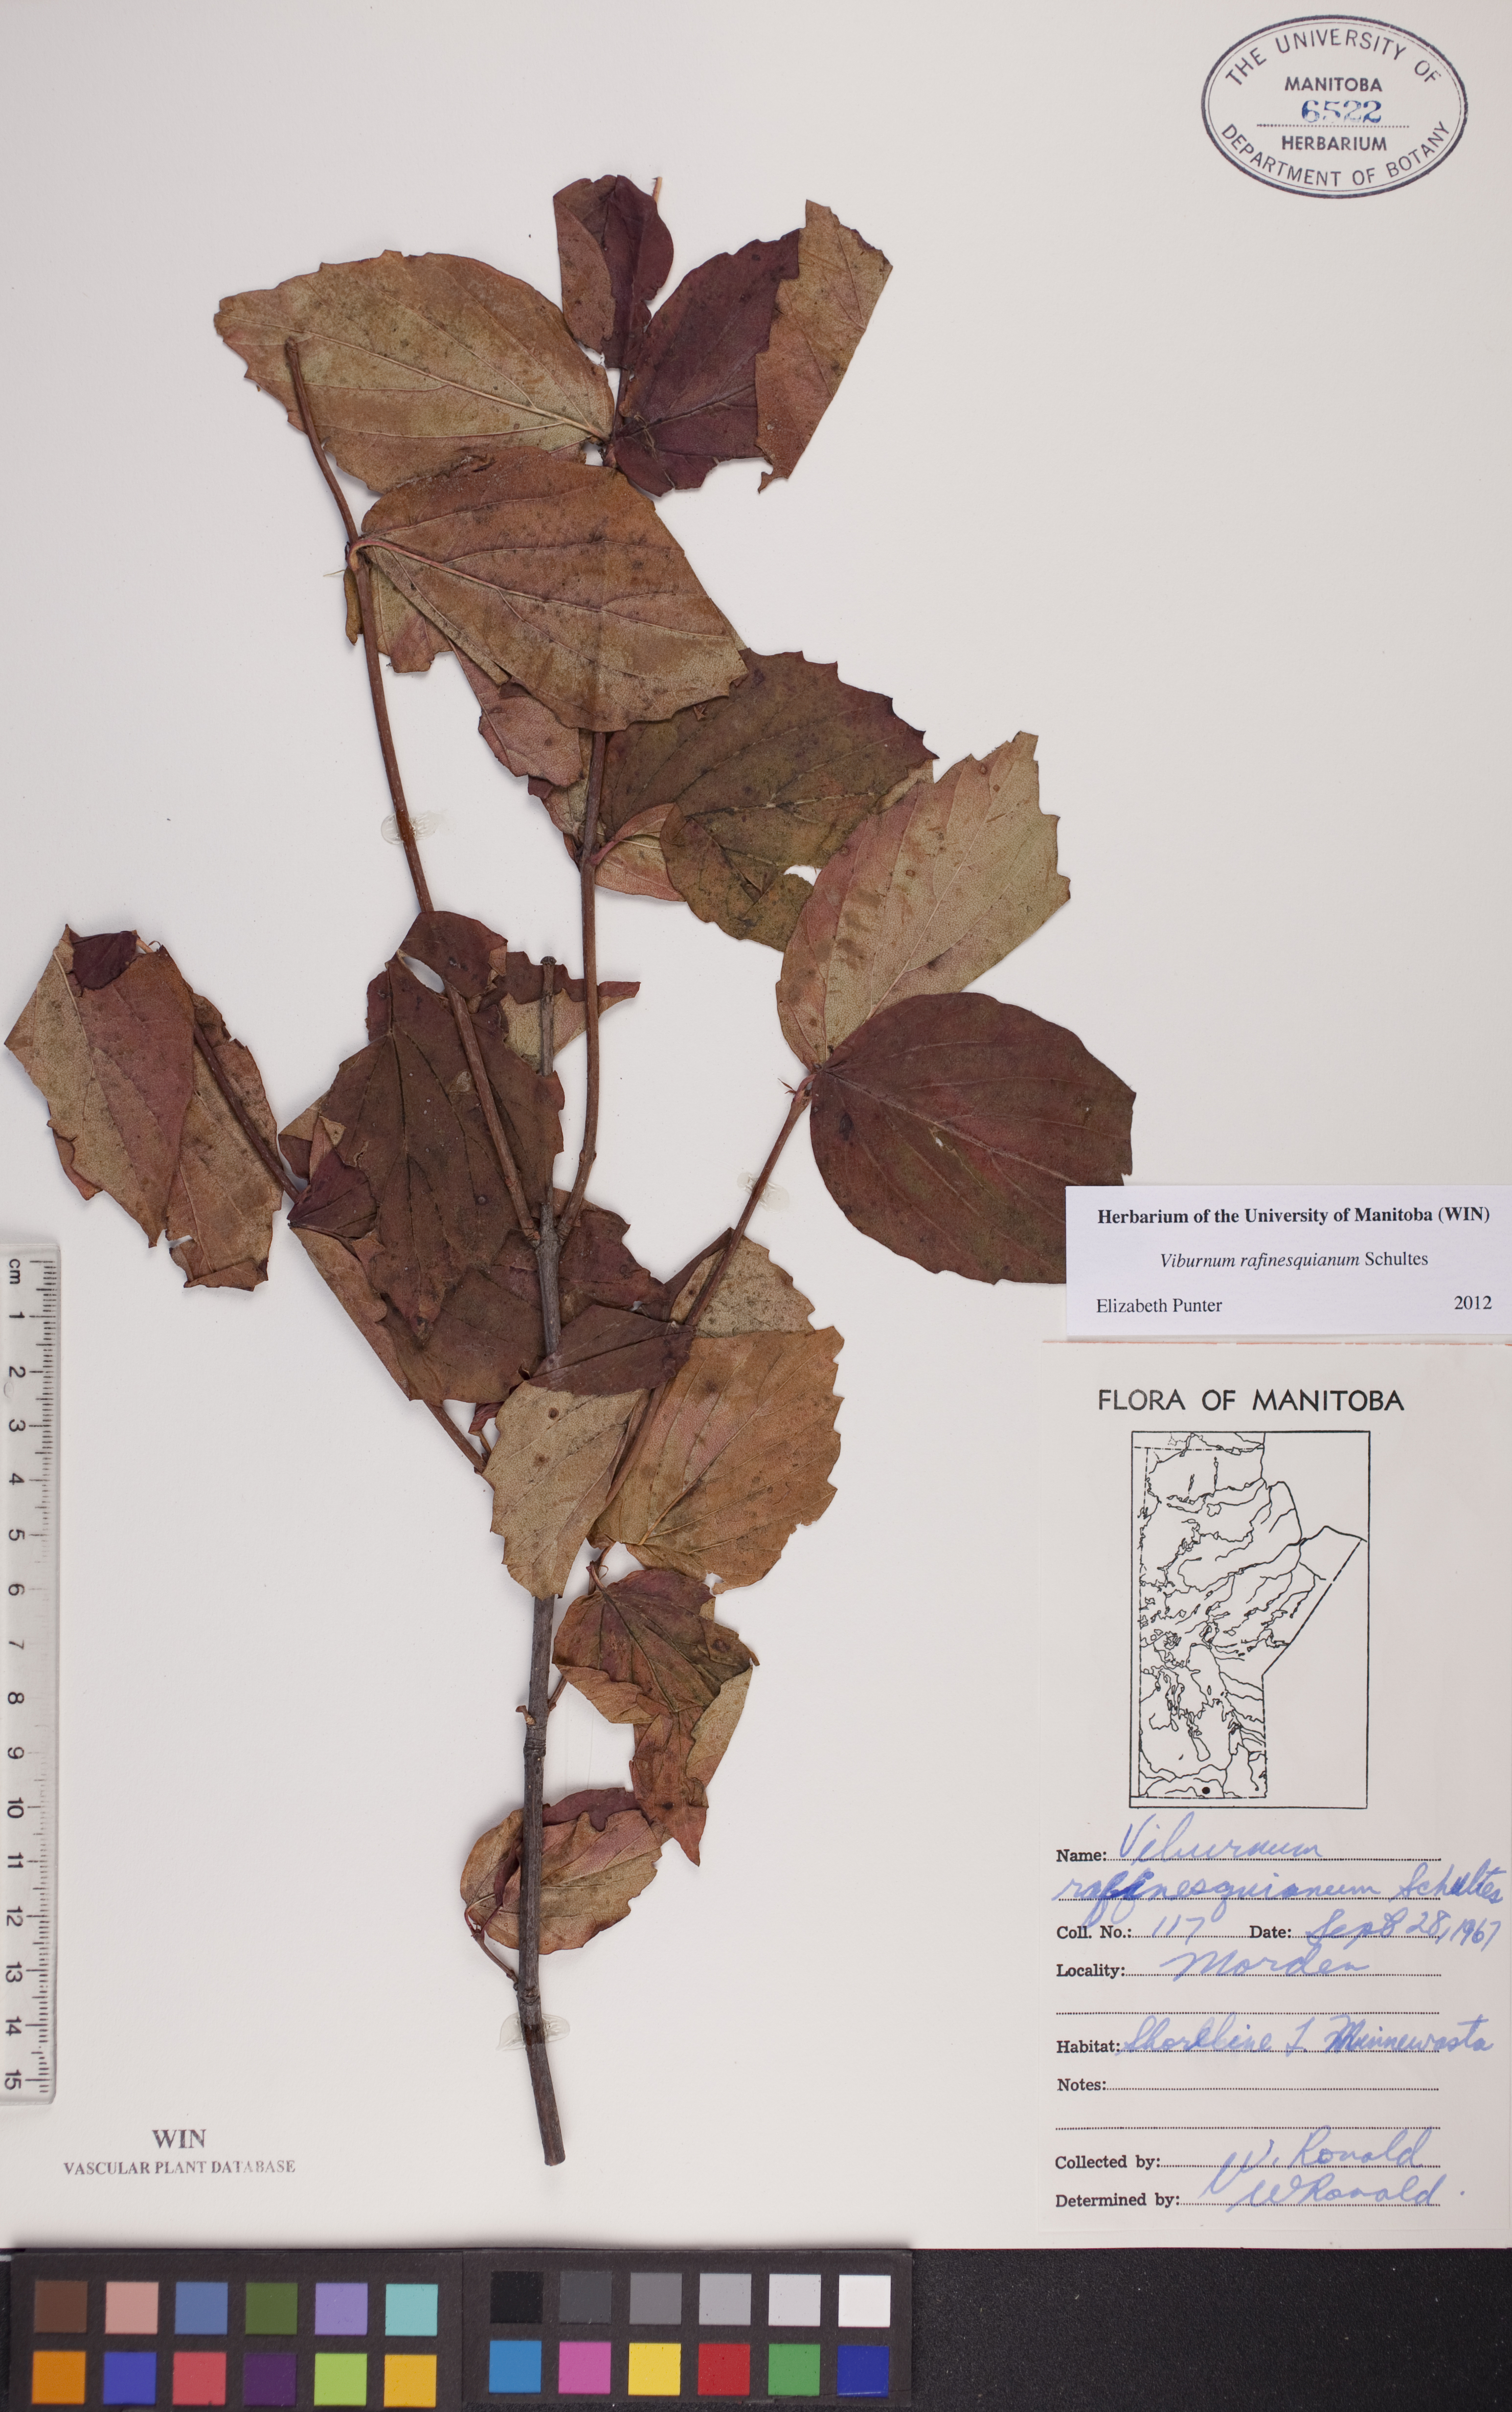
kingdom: Plantae
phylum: Tracheophyta
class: Magnoliopsida
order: Dipsacales
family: Viburnaceae
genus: Viburnum
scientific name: Viburnum rafinesquianum
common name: Downy arrow-wood
